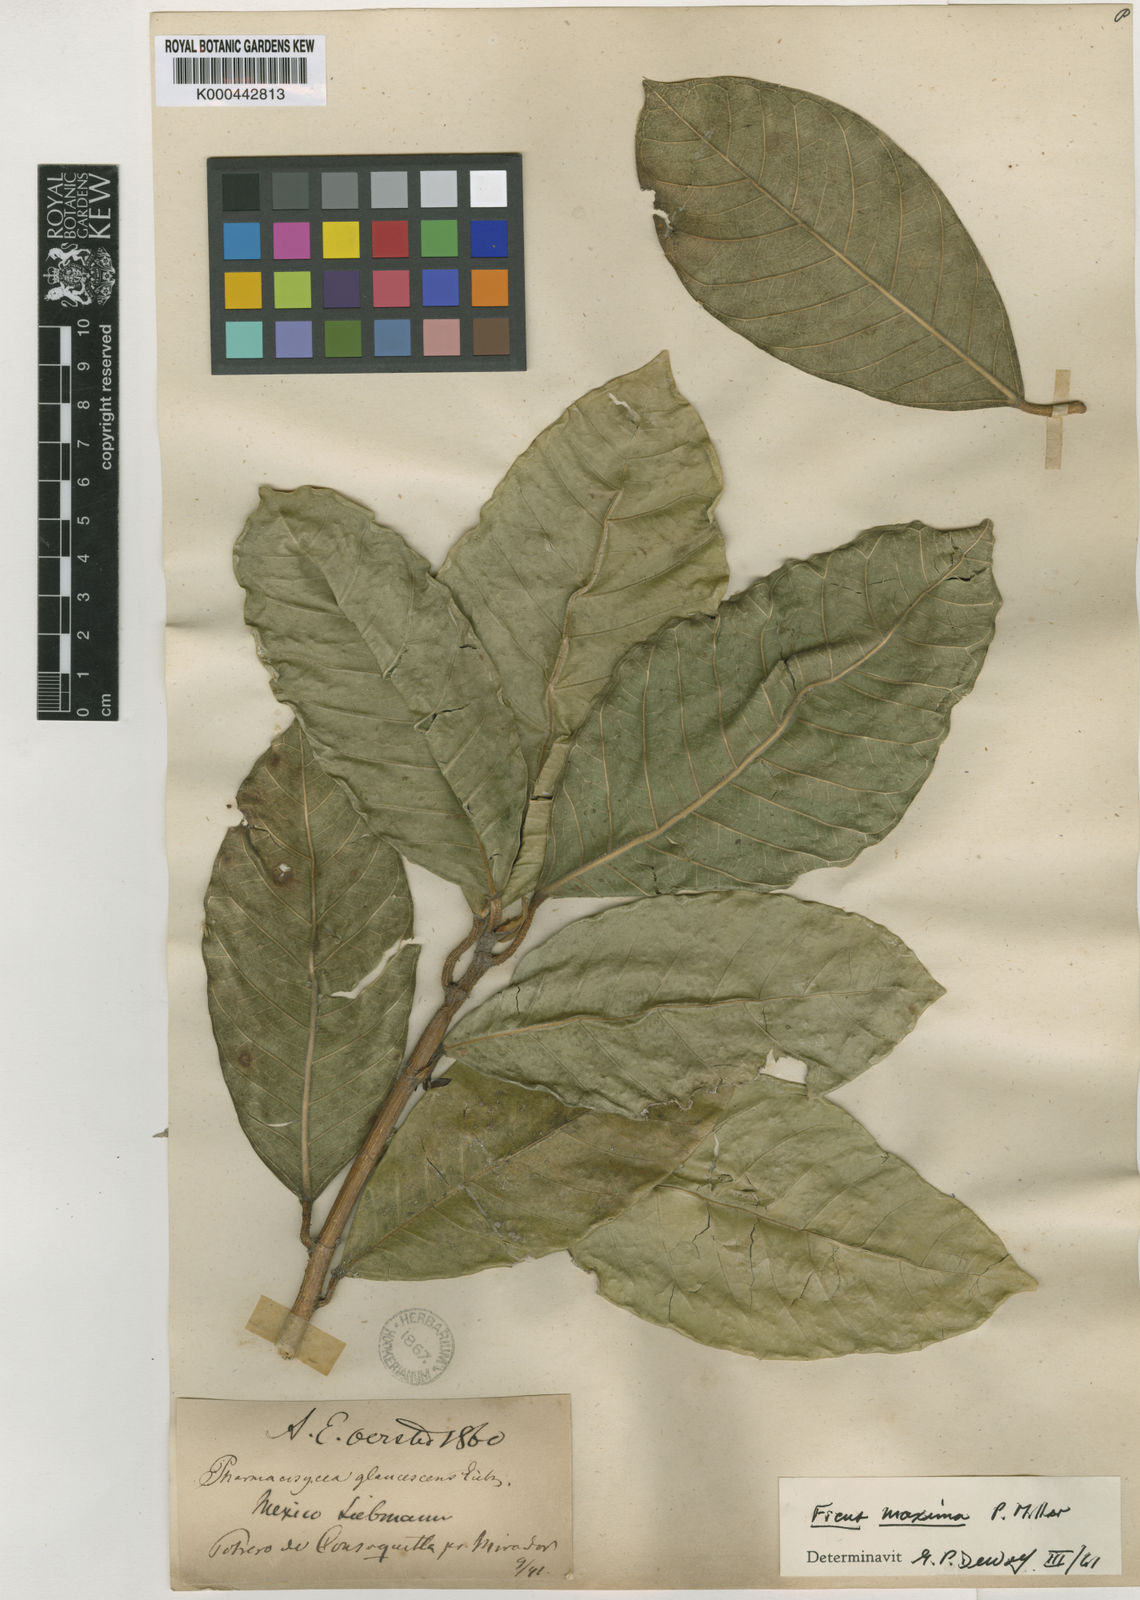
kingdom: Plantae
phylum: Tracheophyta
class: Magnoliopsida
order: Rosales
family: Moraceae
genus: Ficus
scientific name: Ficus maxima
